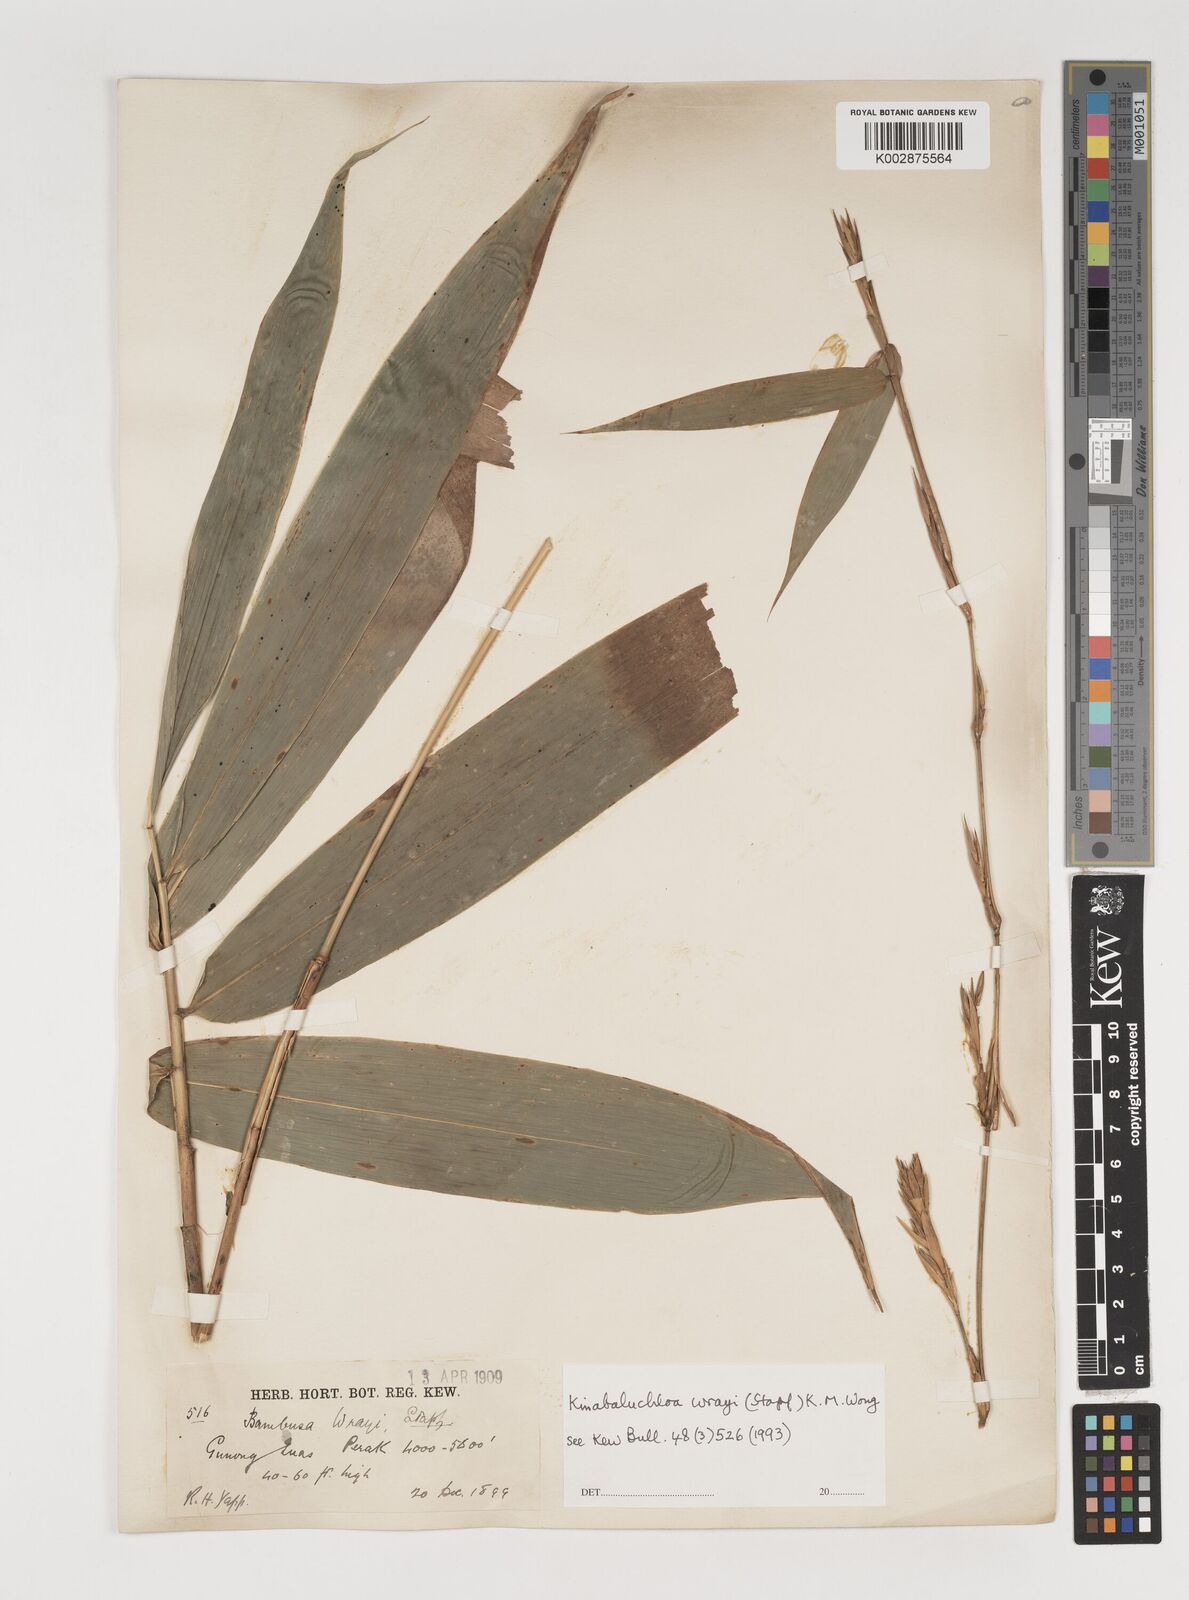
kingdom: Plantae
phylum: Tracheophyta
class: Liliopsida
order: Poales
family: Poaceae
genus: Kinabaluchloa
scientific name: Kinabaluchloa wrayi
